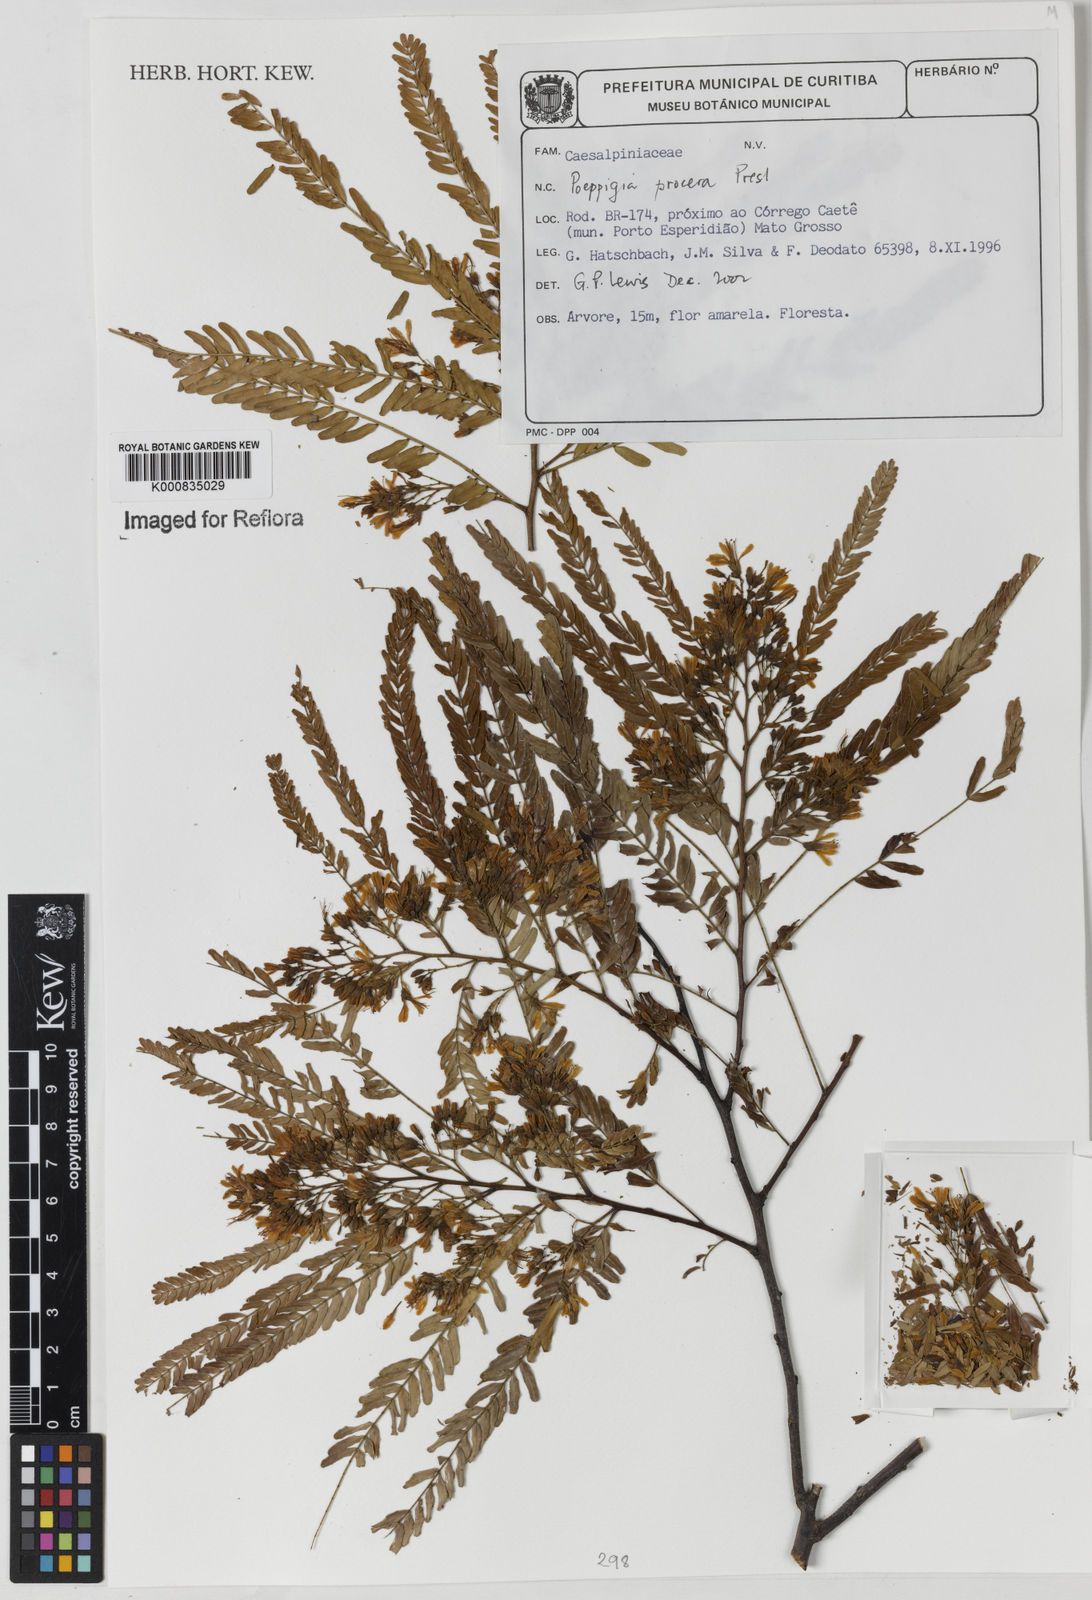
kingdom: Plantae
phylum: Tracheophyta
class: Magnoliopsida
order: Fabales
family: Fabaceae
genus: Poeppigia
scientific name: Poeppigia procera
